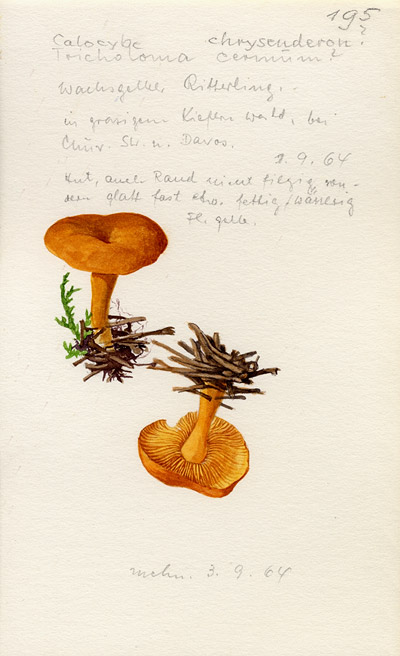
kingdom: Fungi
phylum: Basidiomycota
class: Agaricomycetes
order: Agaricales
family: Lyophyllaceae
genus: Calocybe
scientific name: Calocybe chrysenteron
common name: Yellow domecap
